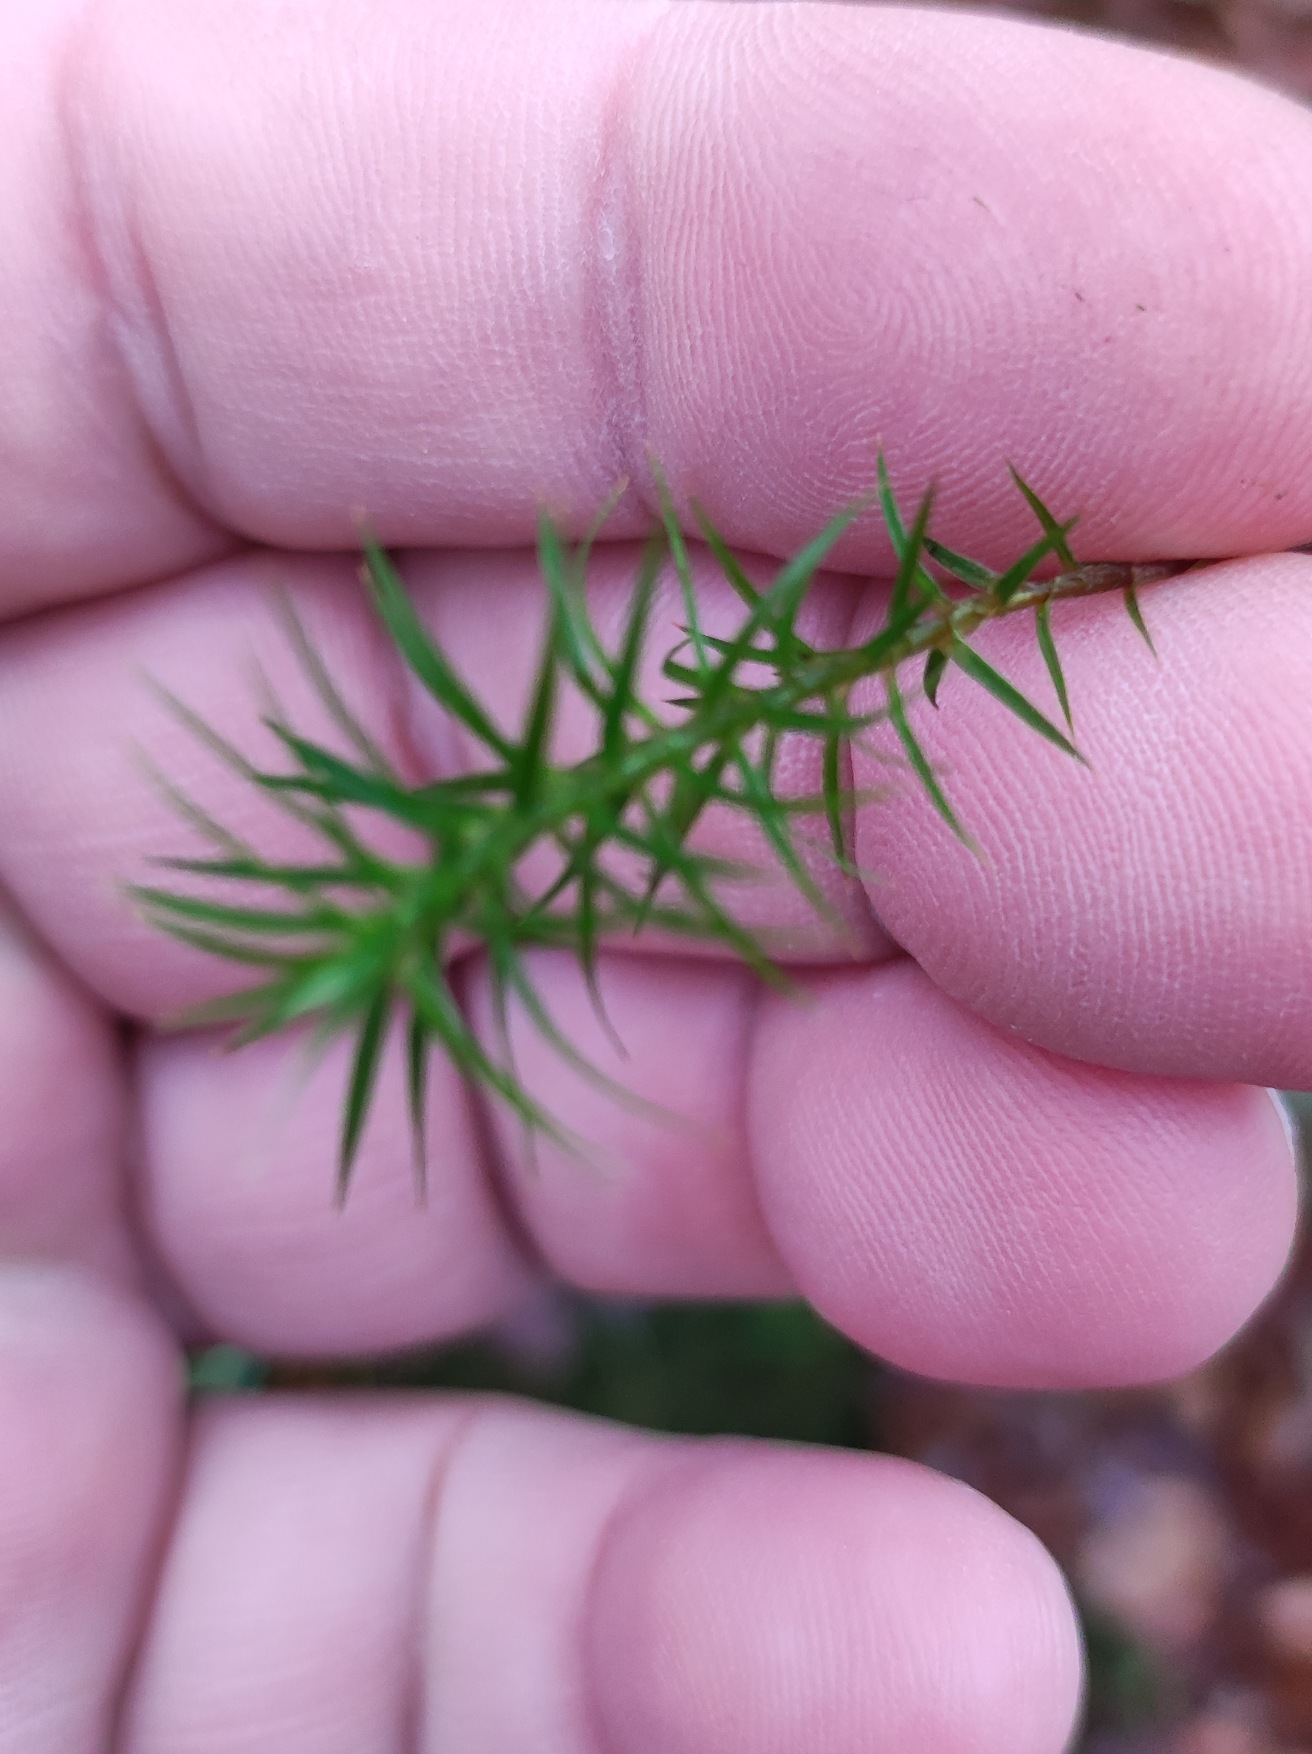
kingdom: Plantae
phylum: Bryophyta
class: Polytrichopsida
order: Polytrichales
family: Polytrichaceae
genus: Polytrichum
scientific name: Polytrichum formosum
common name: Skov-jomfruhår
